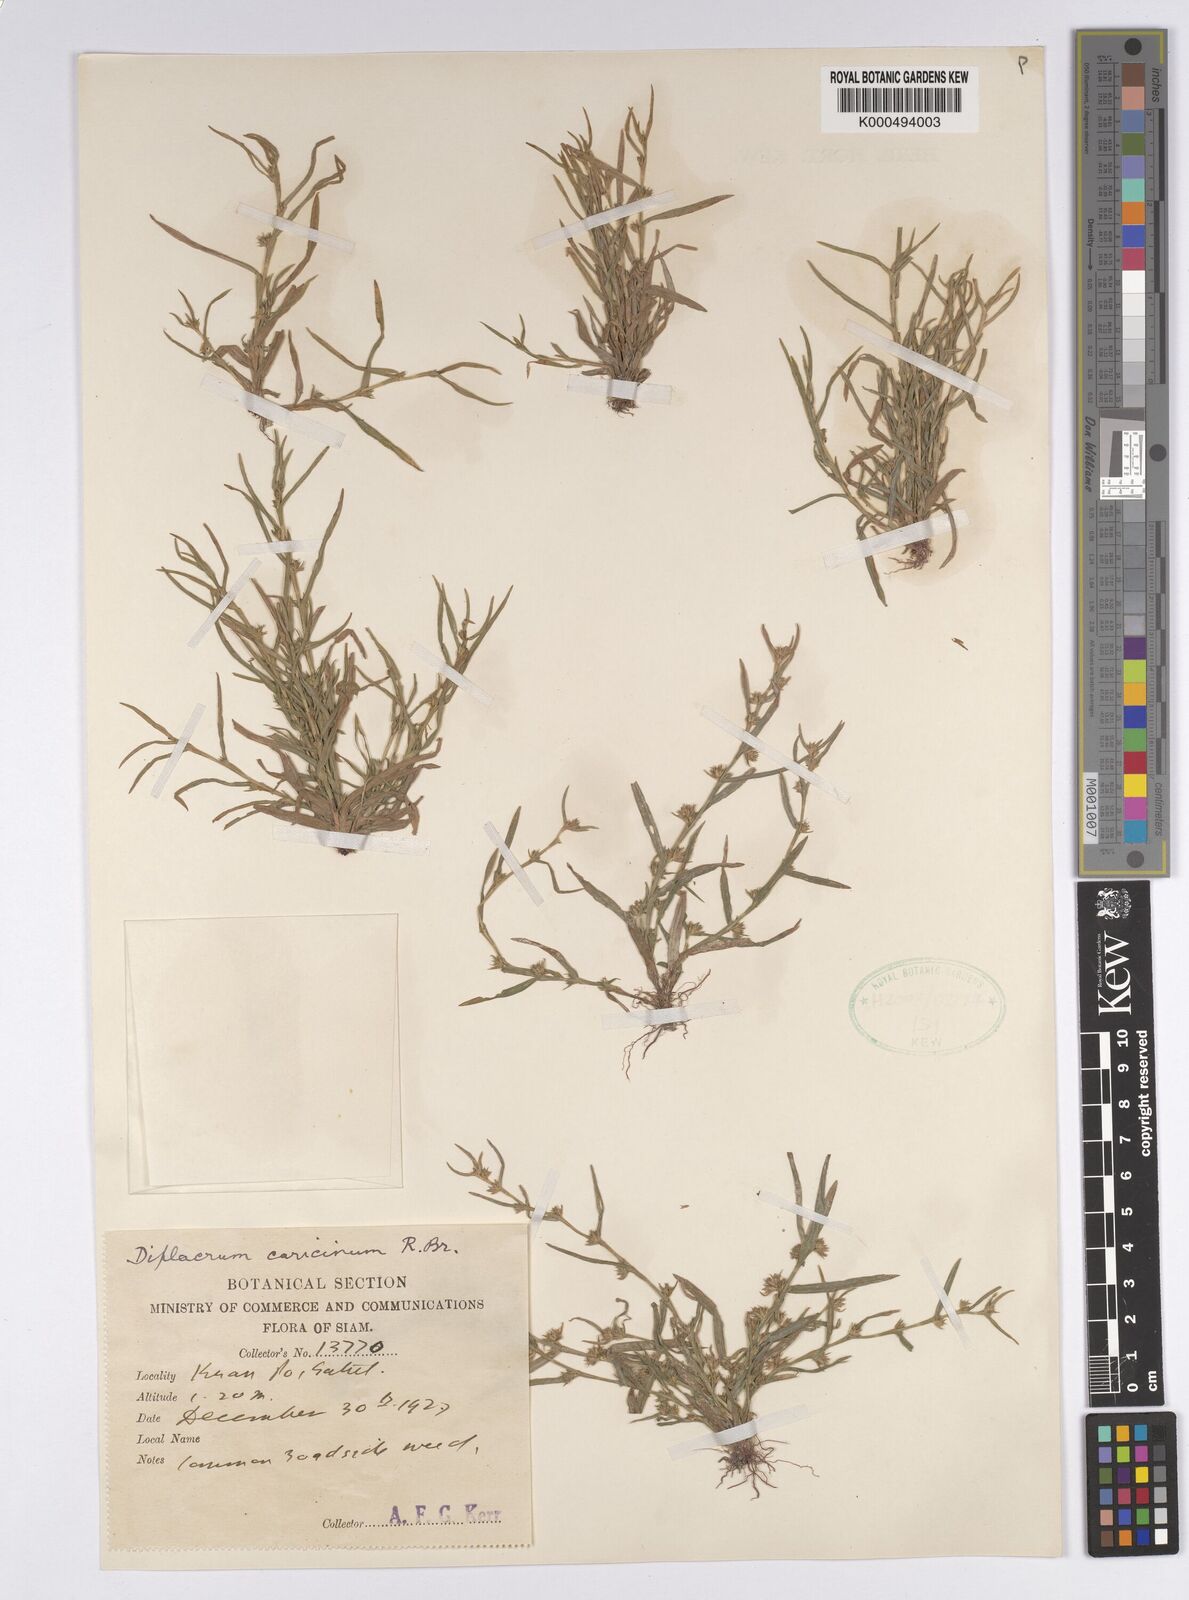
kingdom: Plantae
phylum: Tracheophyta
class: Liliopsida
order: Poales
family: Cyperaceae
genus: Diplacrum
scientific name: Diplacrum caricinum
